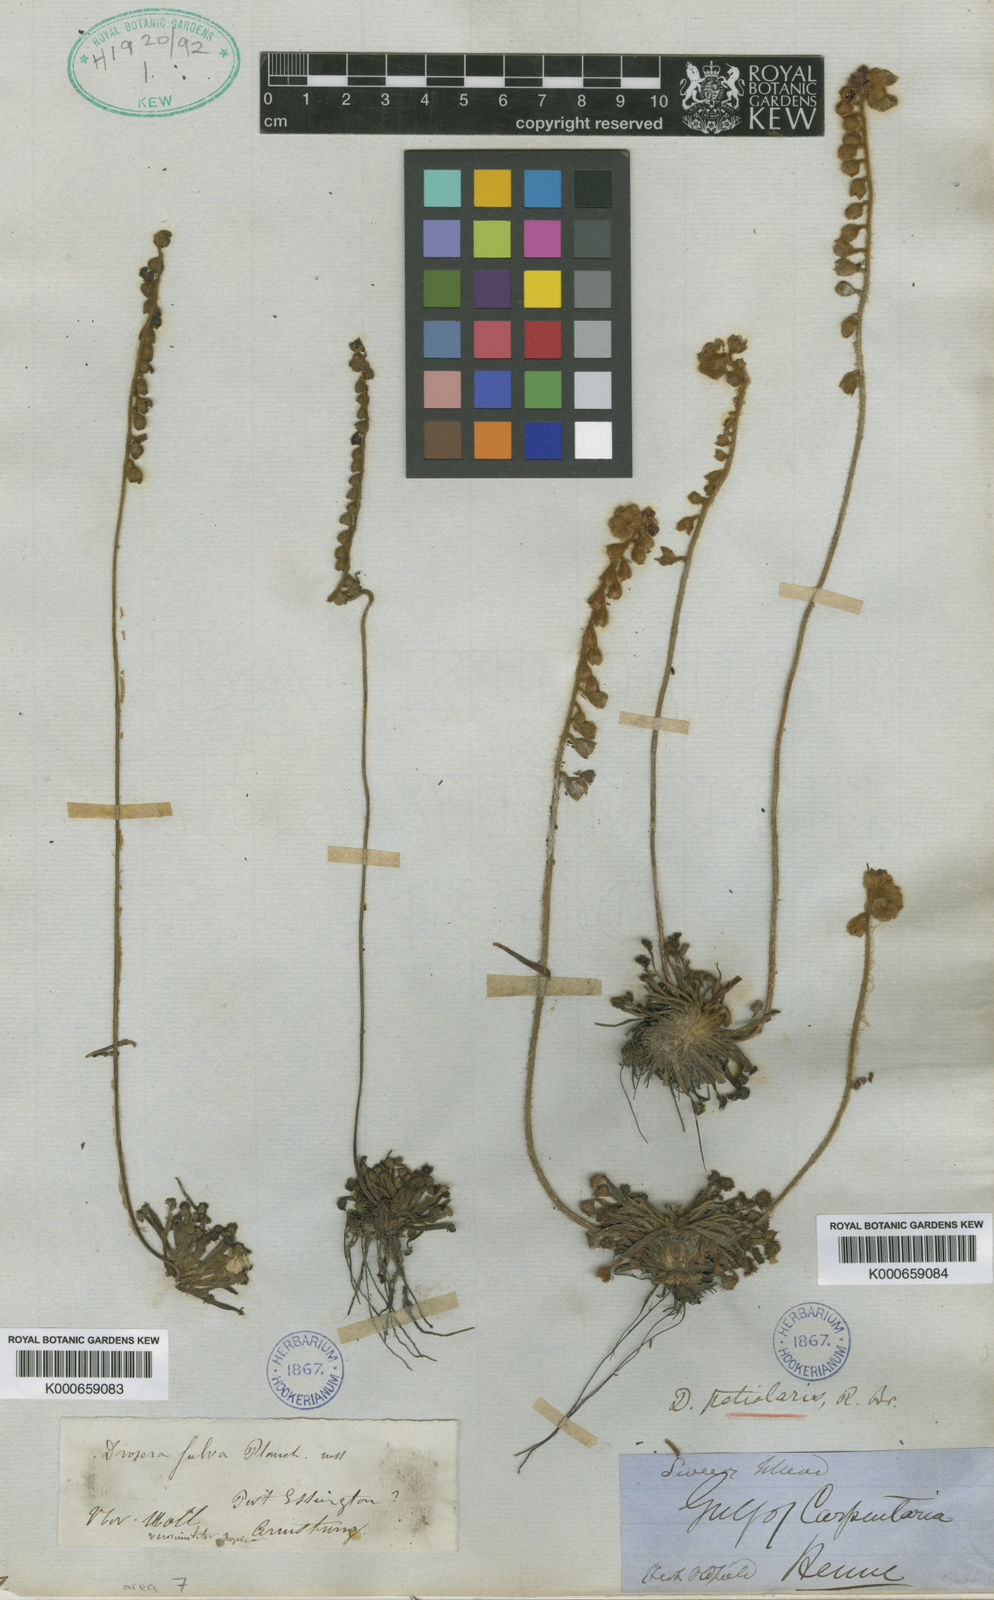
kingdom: Plantae
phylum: Tracheophyta
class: Magnoliopsida
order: Caryophyllales
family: Droseraceae
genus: Drosera
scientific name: Drosera
